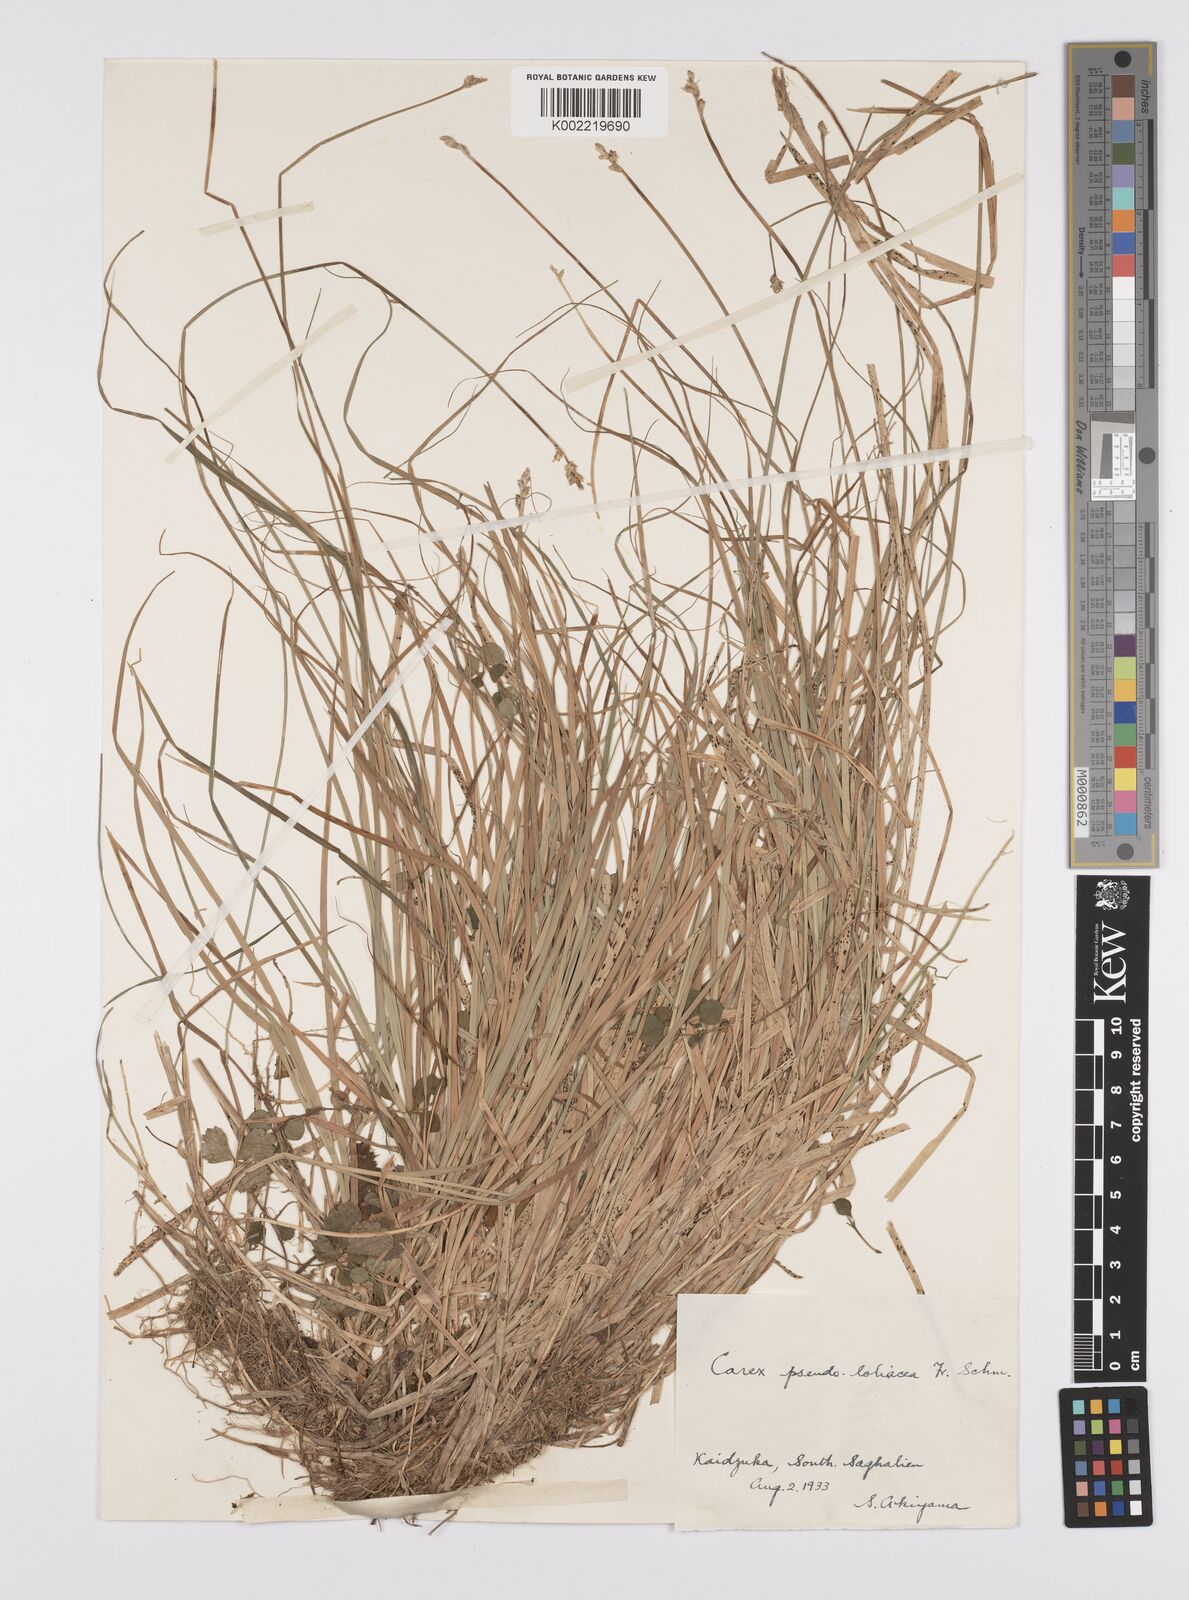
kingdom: Plantae
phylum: Tracheophyta
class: Liliopsida
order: Poales
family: Cyperaceae
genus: Carex
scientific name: Carex pseudololiacea
